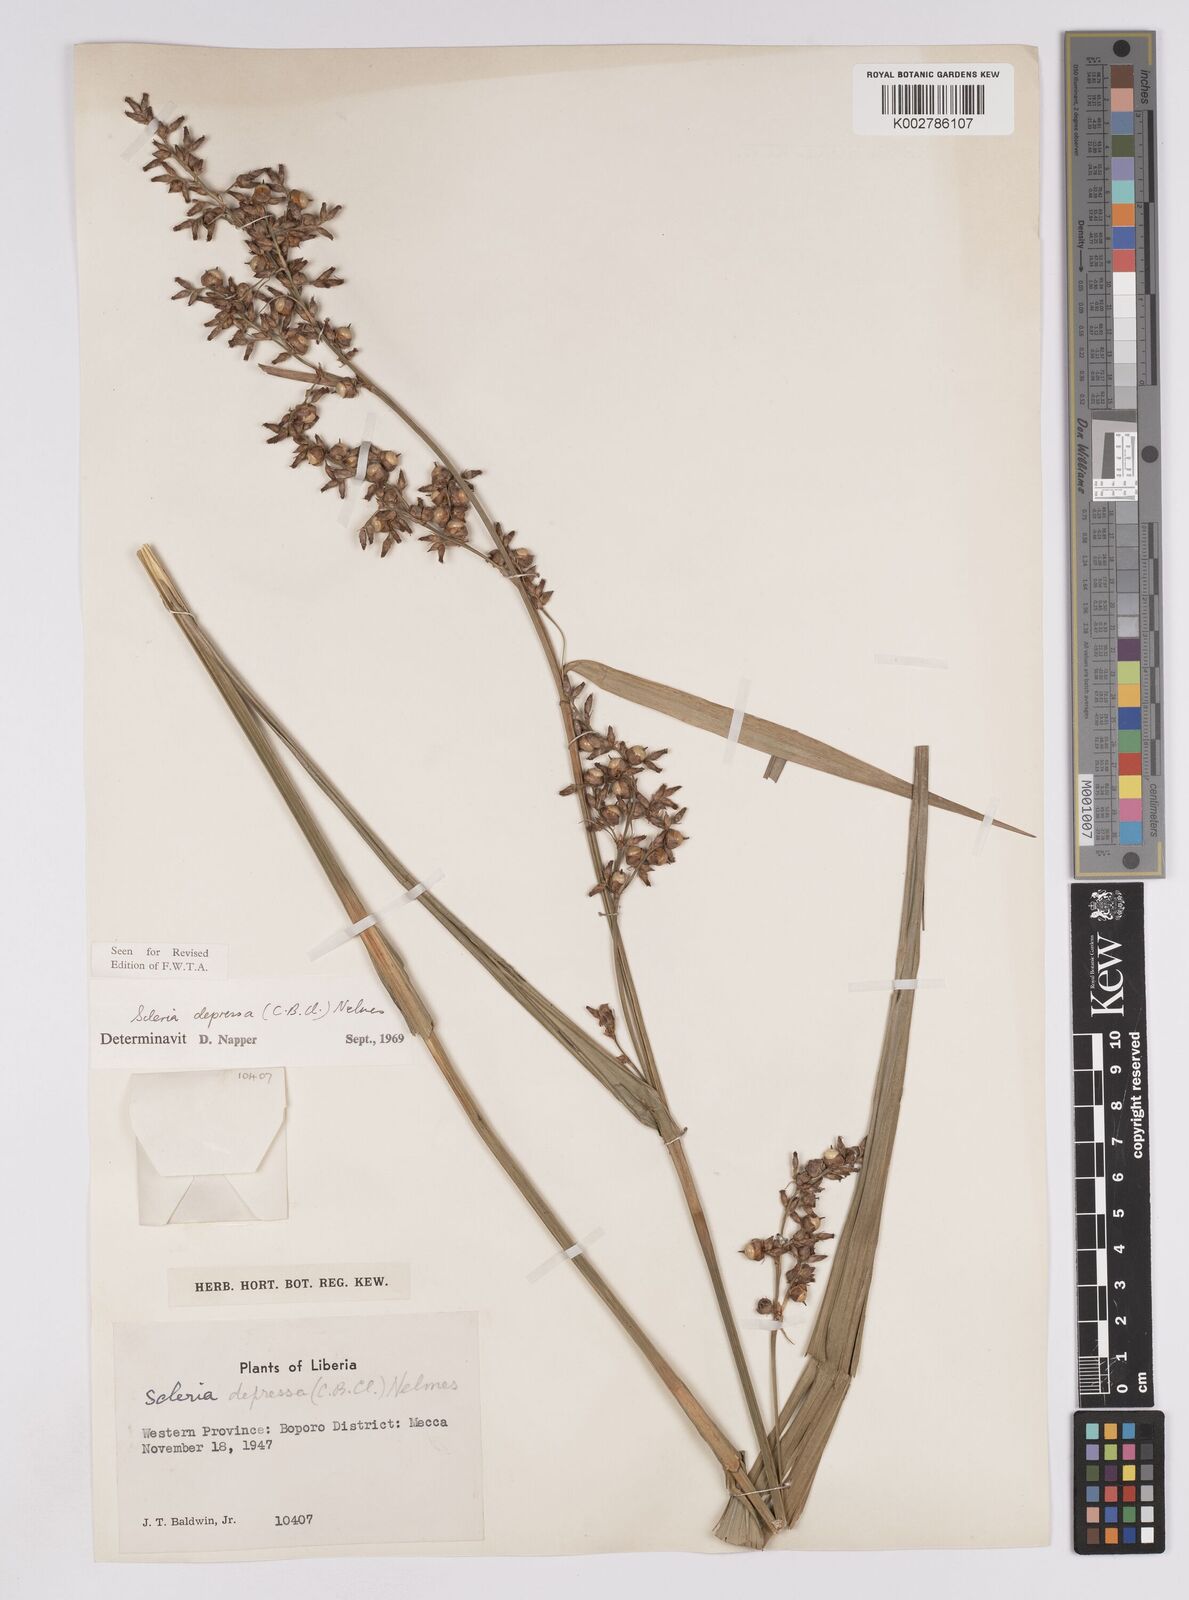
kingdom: Plantae
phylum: Tracheophyta
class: Liliopsida
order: Poales
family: Cyperaceae
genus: Scleria
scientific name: Scleria depressa
